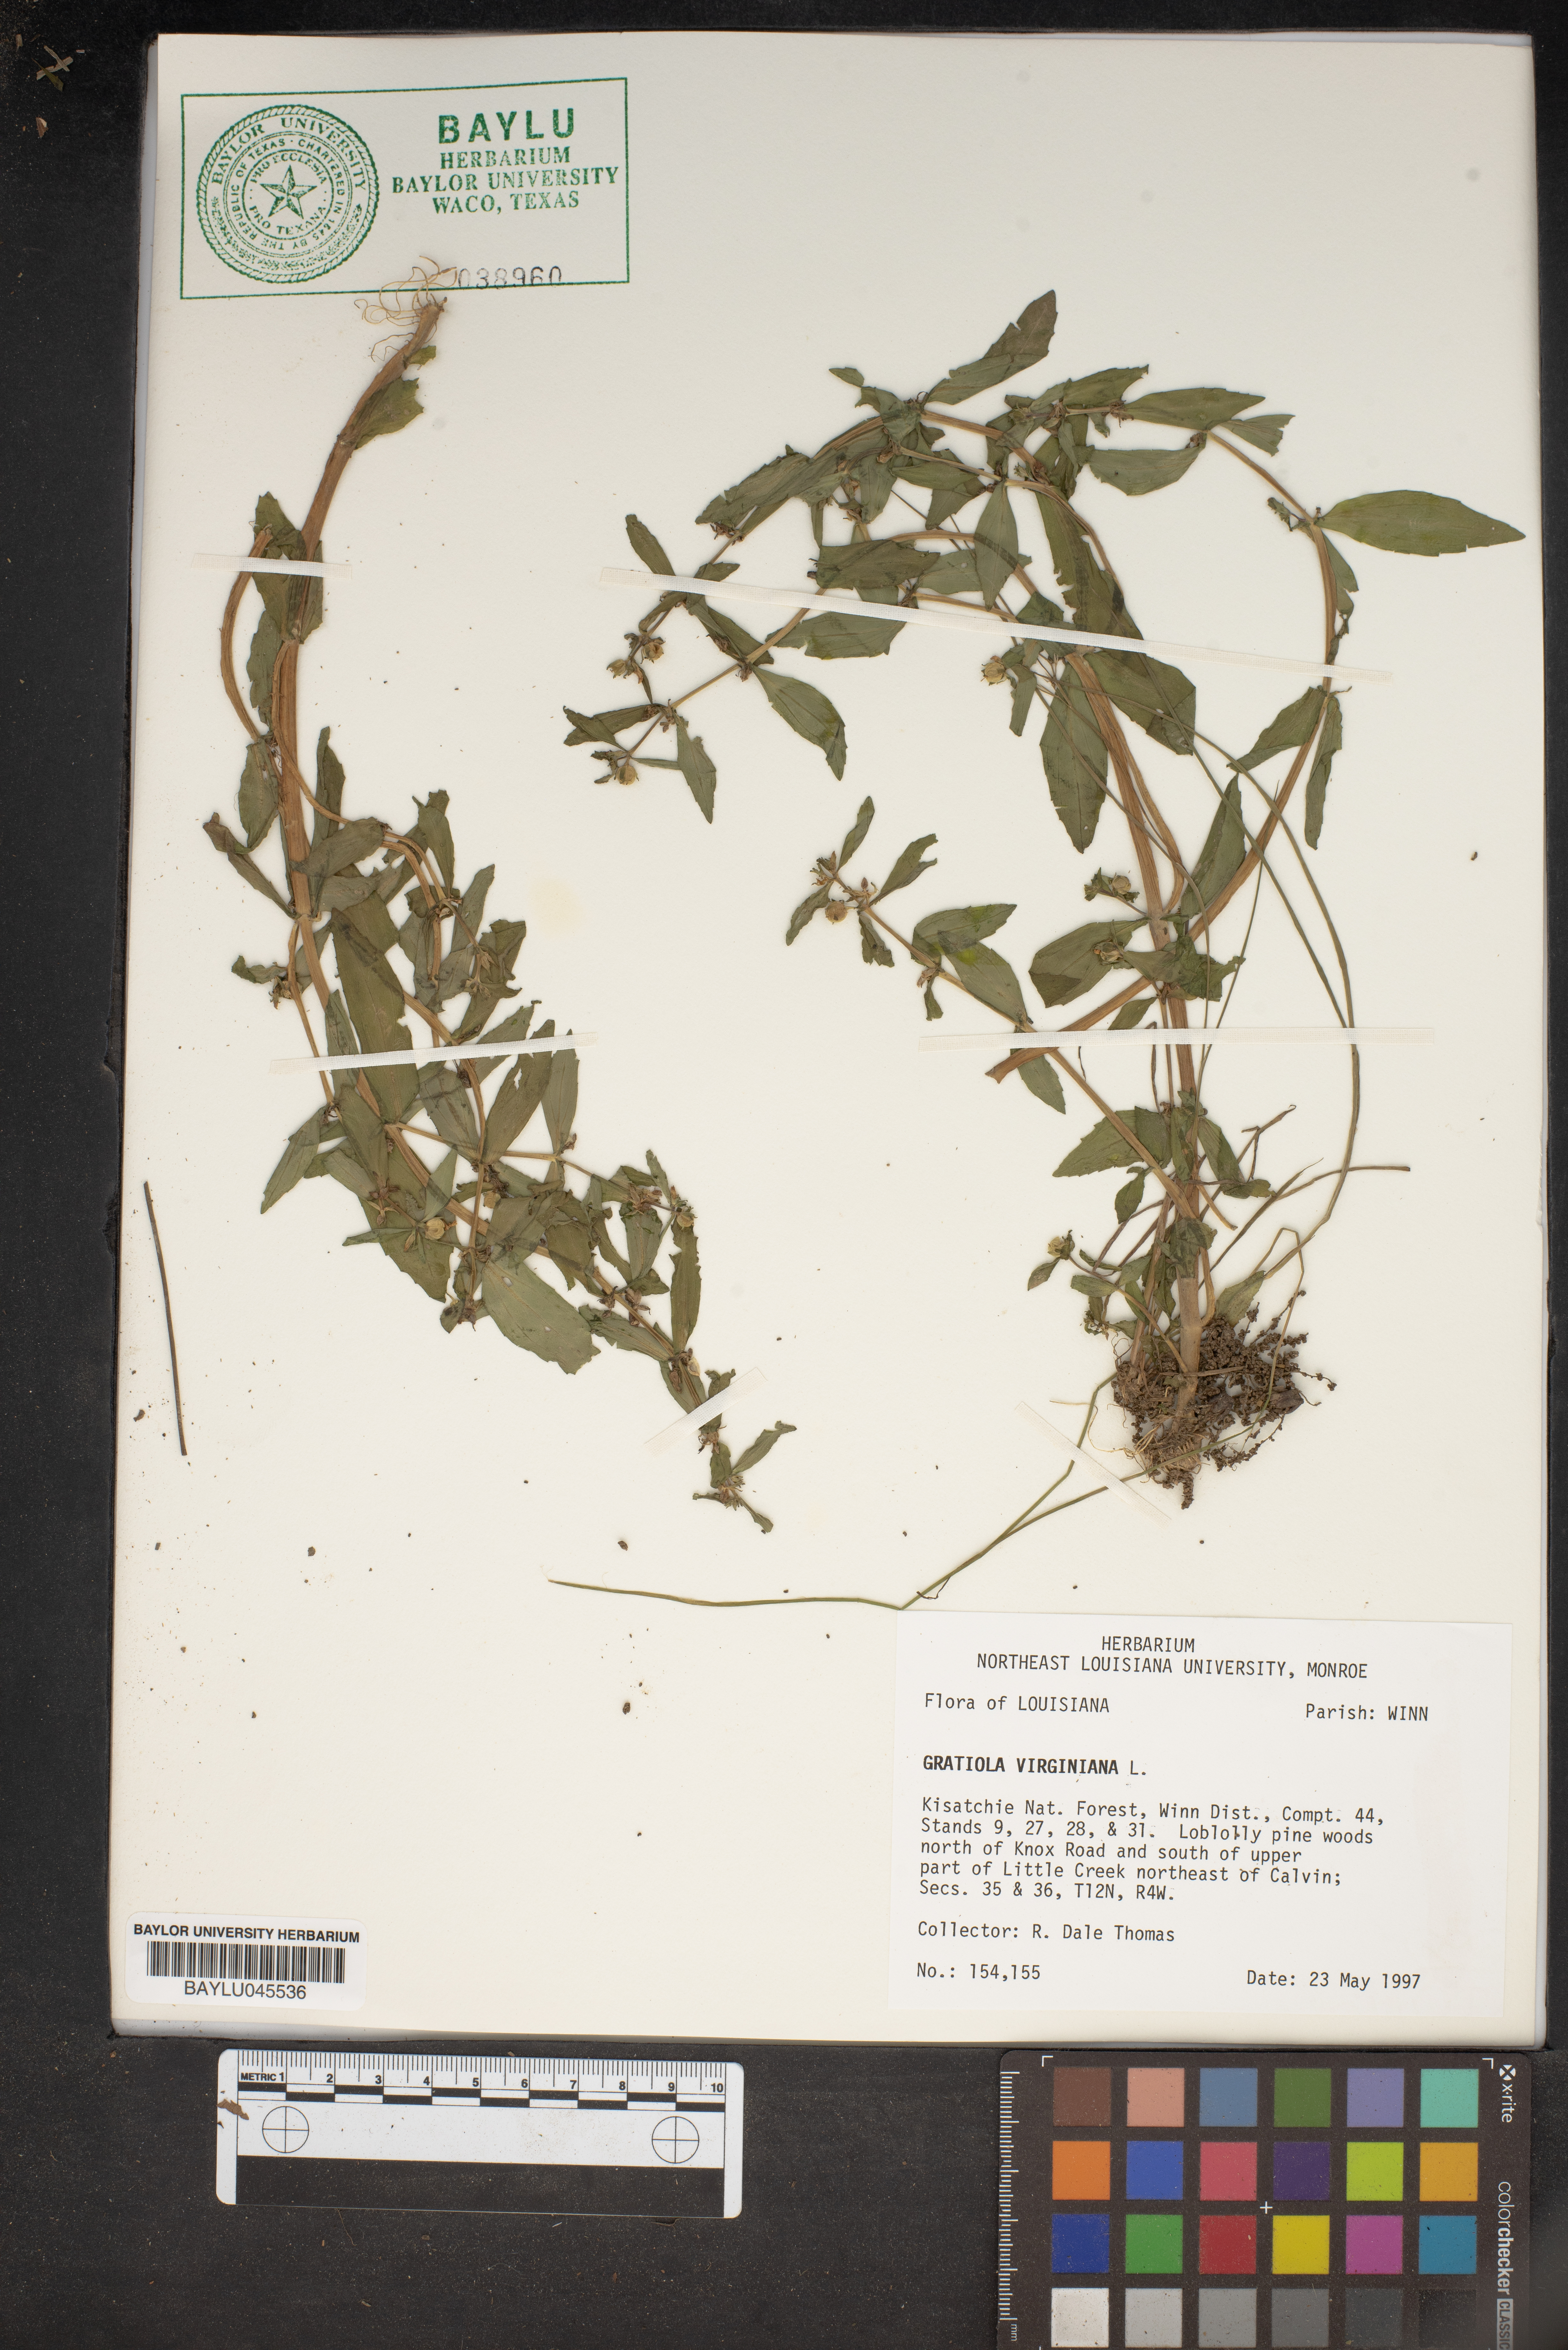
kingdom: Plantae
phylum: Tracheophyta
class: Magnoliopsida
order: Lamiales
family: Plantaginaceae
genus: Gratiola
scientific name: Gratiola virginiana
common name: Roundfruit hedgehyssop
